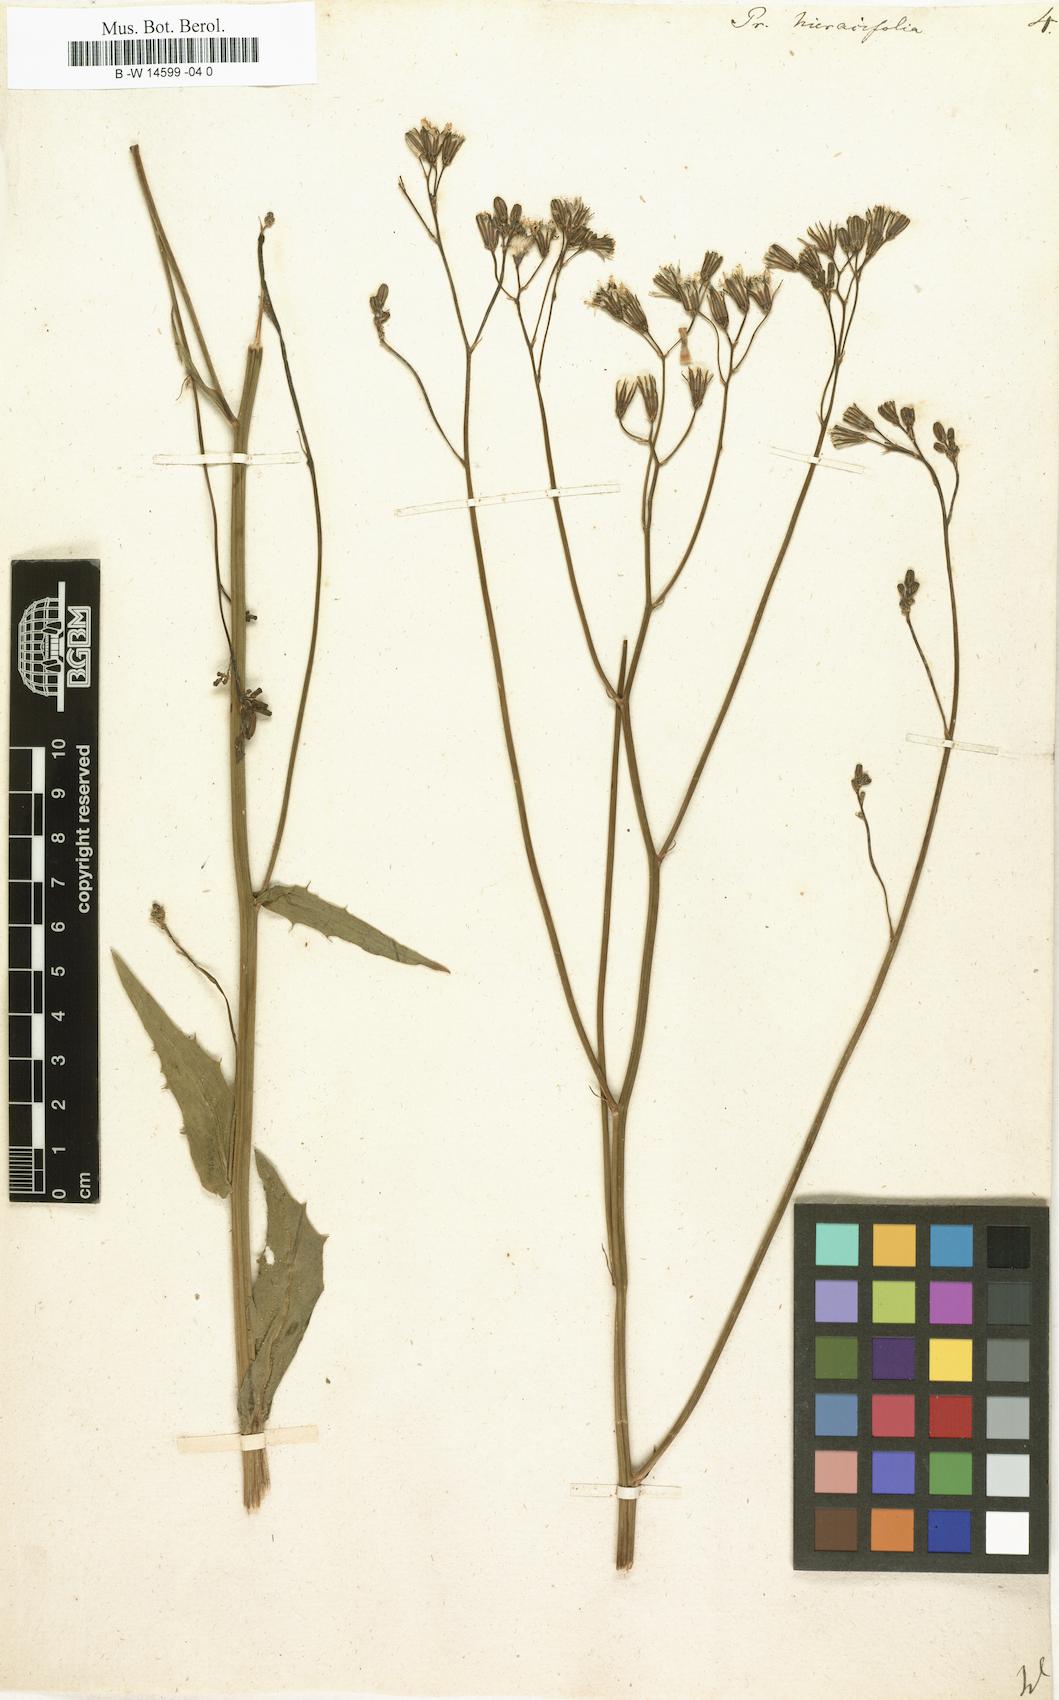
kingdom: Plantae
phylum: Tracheophyta
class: Magnoliopsida
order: Asterales
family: Asteraceae
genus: Crepis
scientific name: Crepis pulchra
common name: Hawk's-beard
